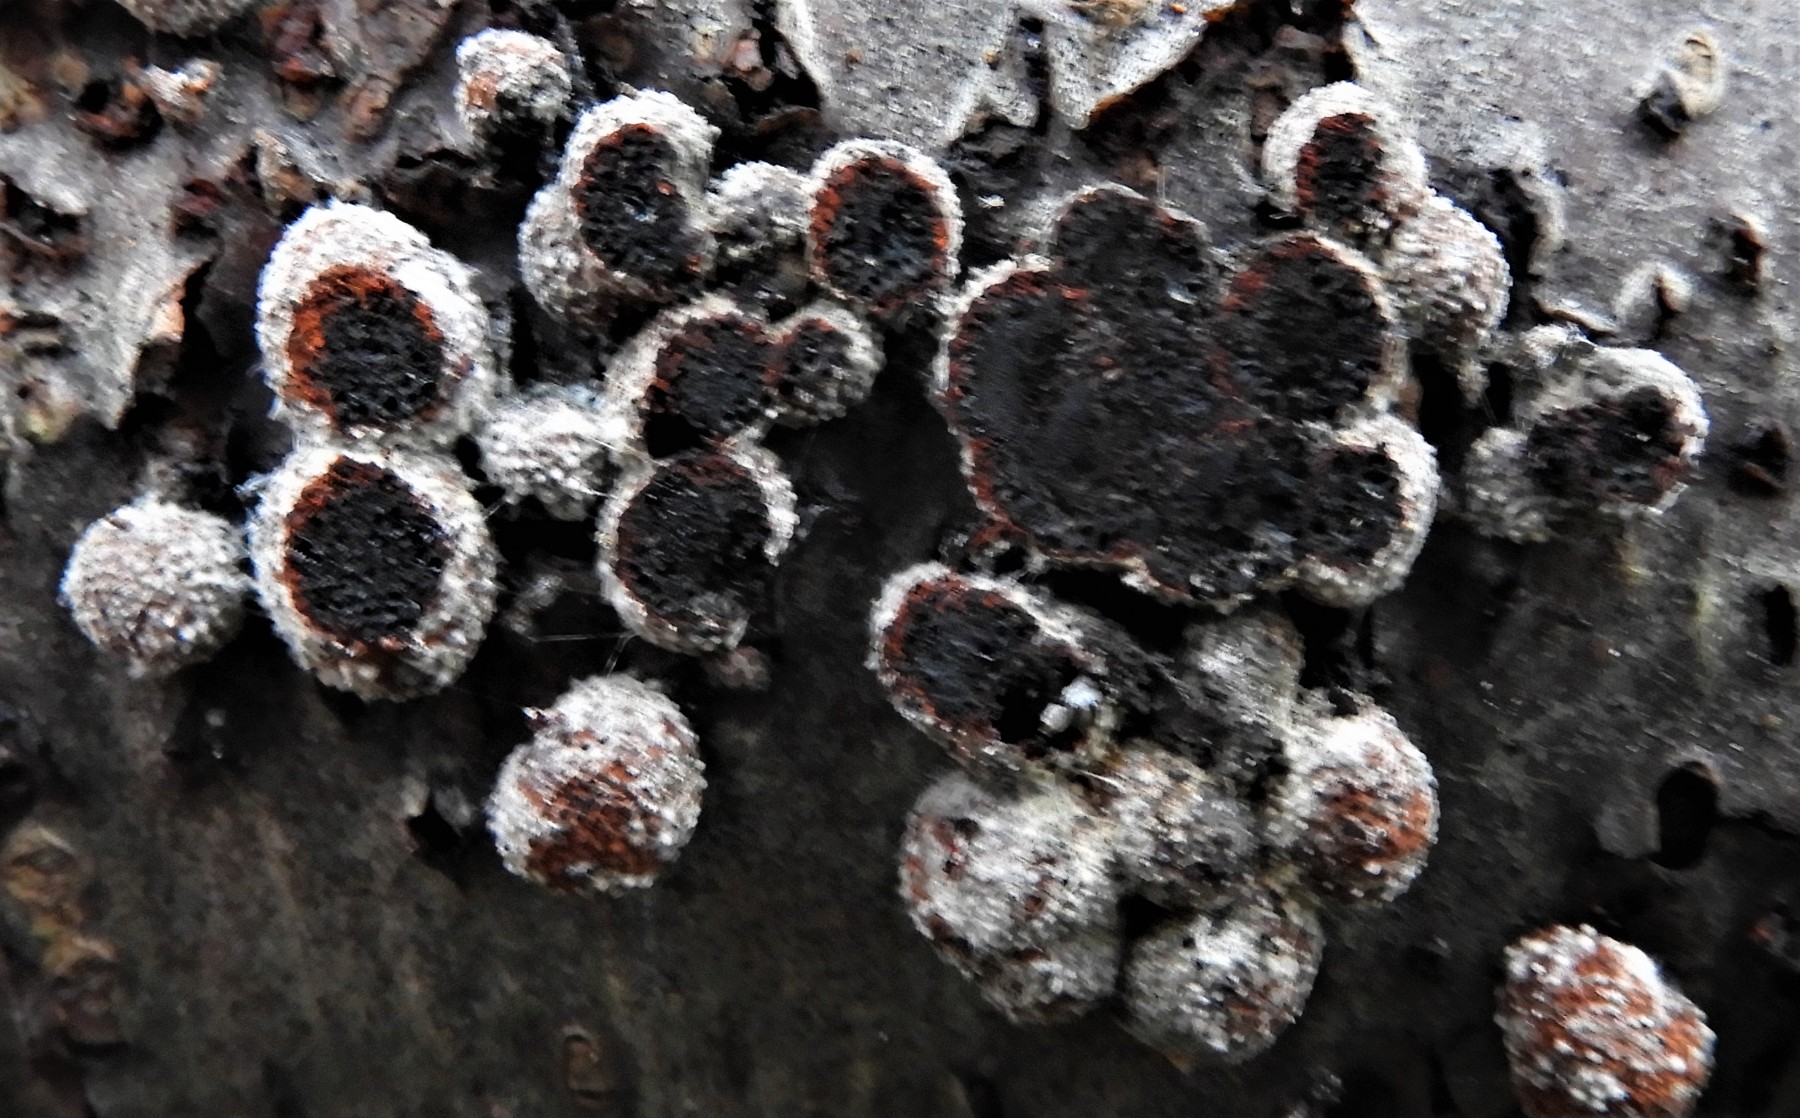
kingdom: Fungi
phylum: Ascomycota
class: Sordariomycetes
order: Xylariales
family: Hypoxylaceae
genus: Hypoxylon
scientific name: Hypoxylon fragiforme
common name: kuljordbær
